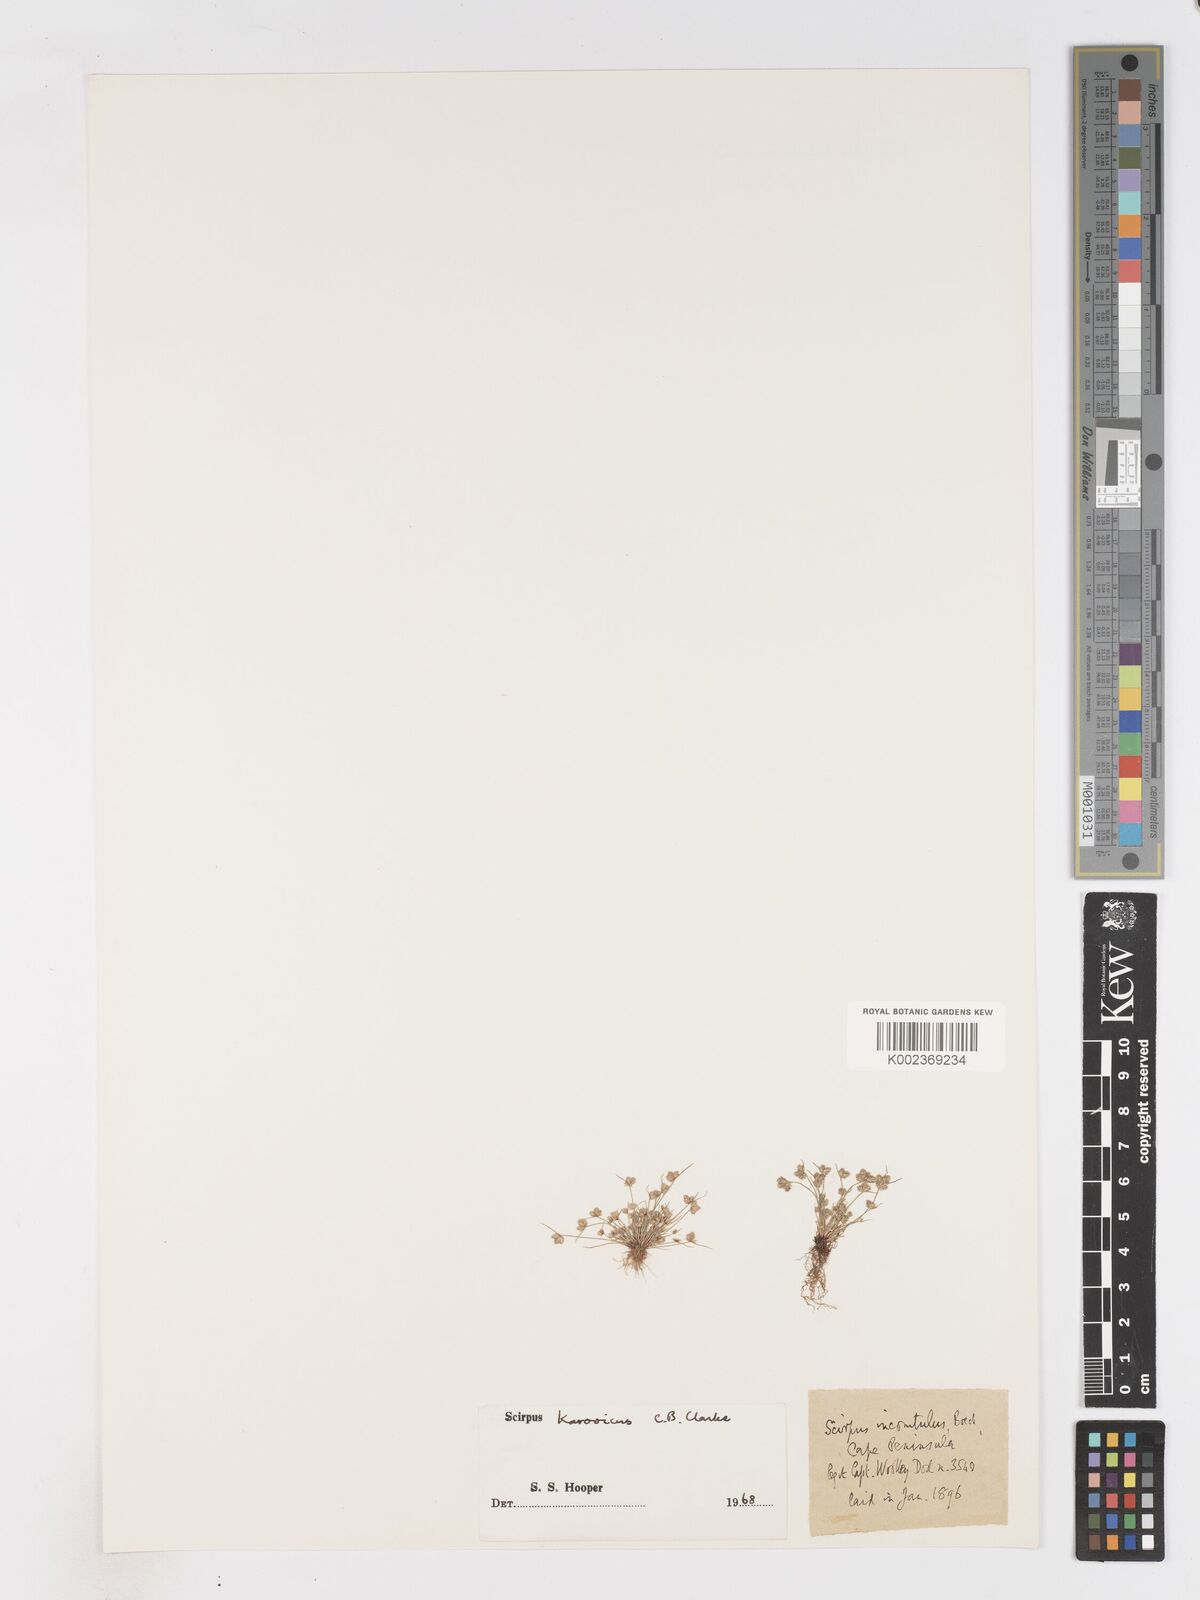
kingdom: Plantae
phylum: Tracheophyta
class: Liliopsida
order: Poales
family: Cyperaceae
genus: Isolepis
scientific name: Isolepis karroica
